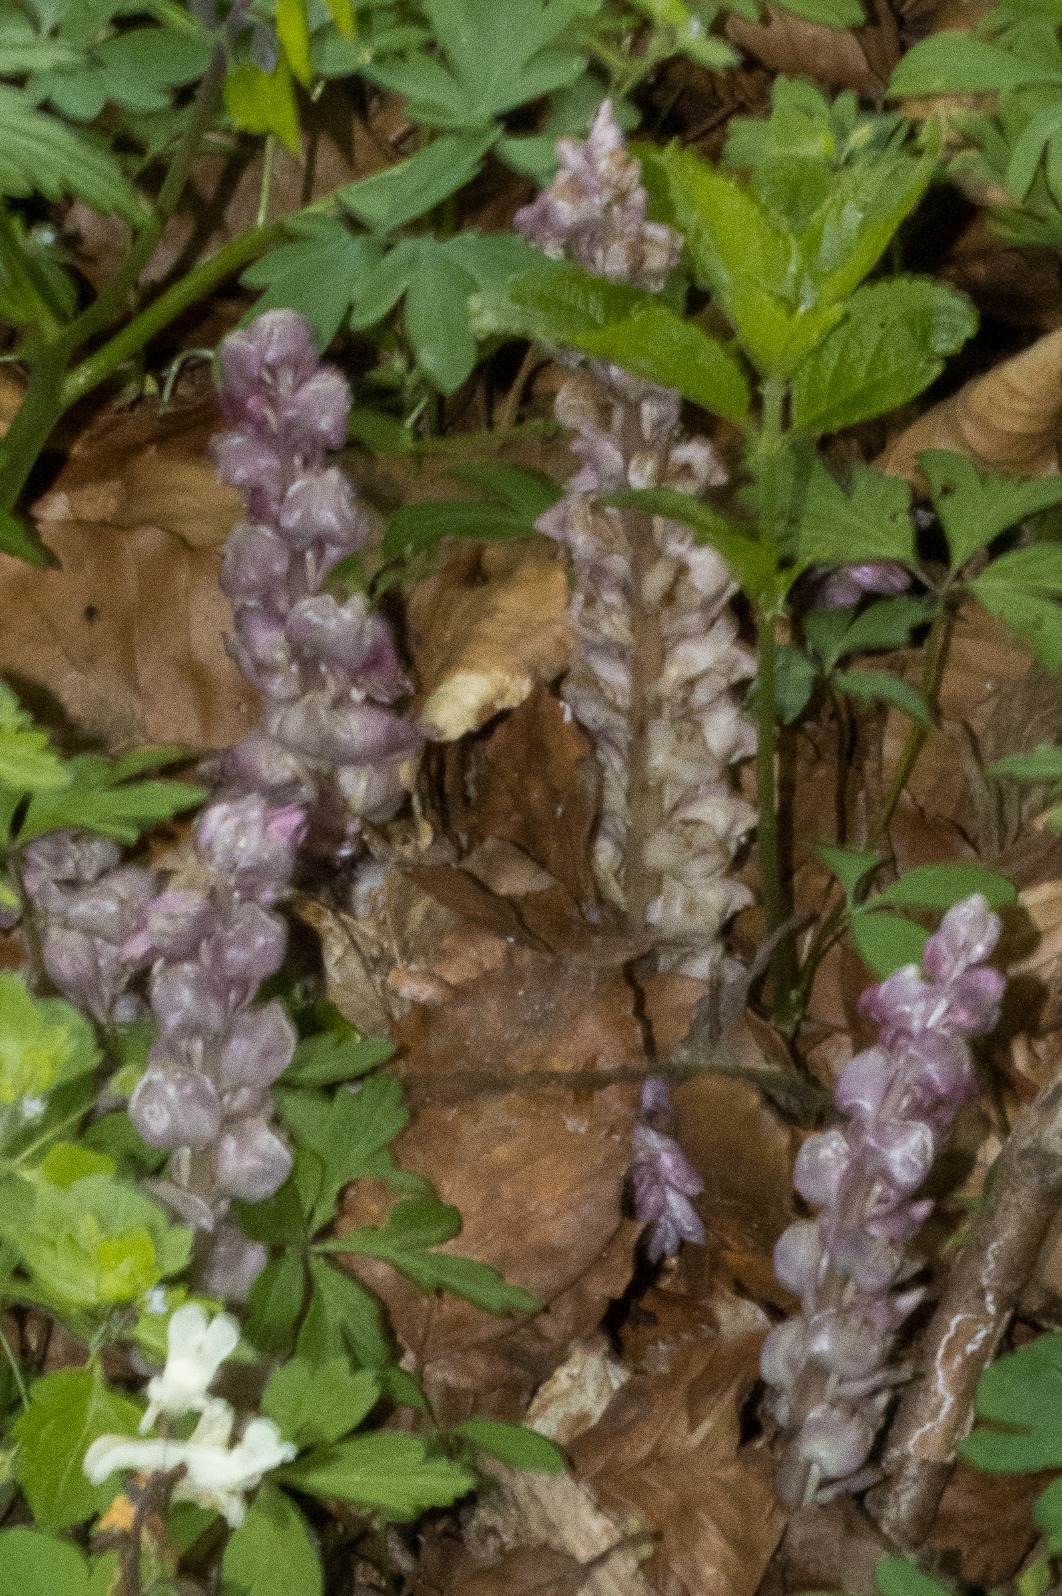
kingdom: Plantae
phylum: Tracheophyta
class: Magnoliopsida
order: Lamiales
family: Orobanchaceae
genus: Lathraea
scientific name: Lathraea squamaria
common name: Skælrod
